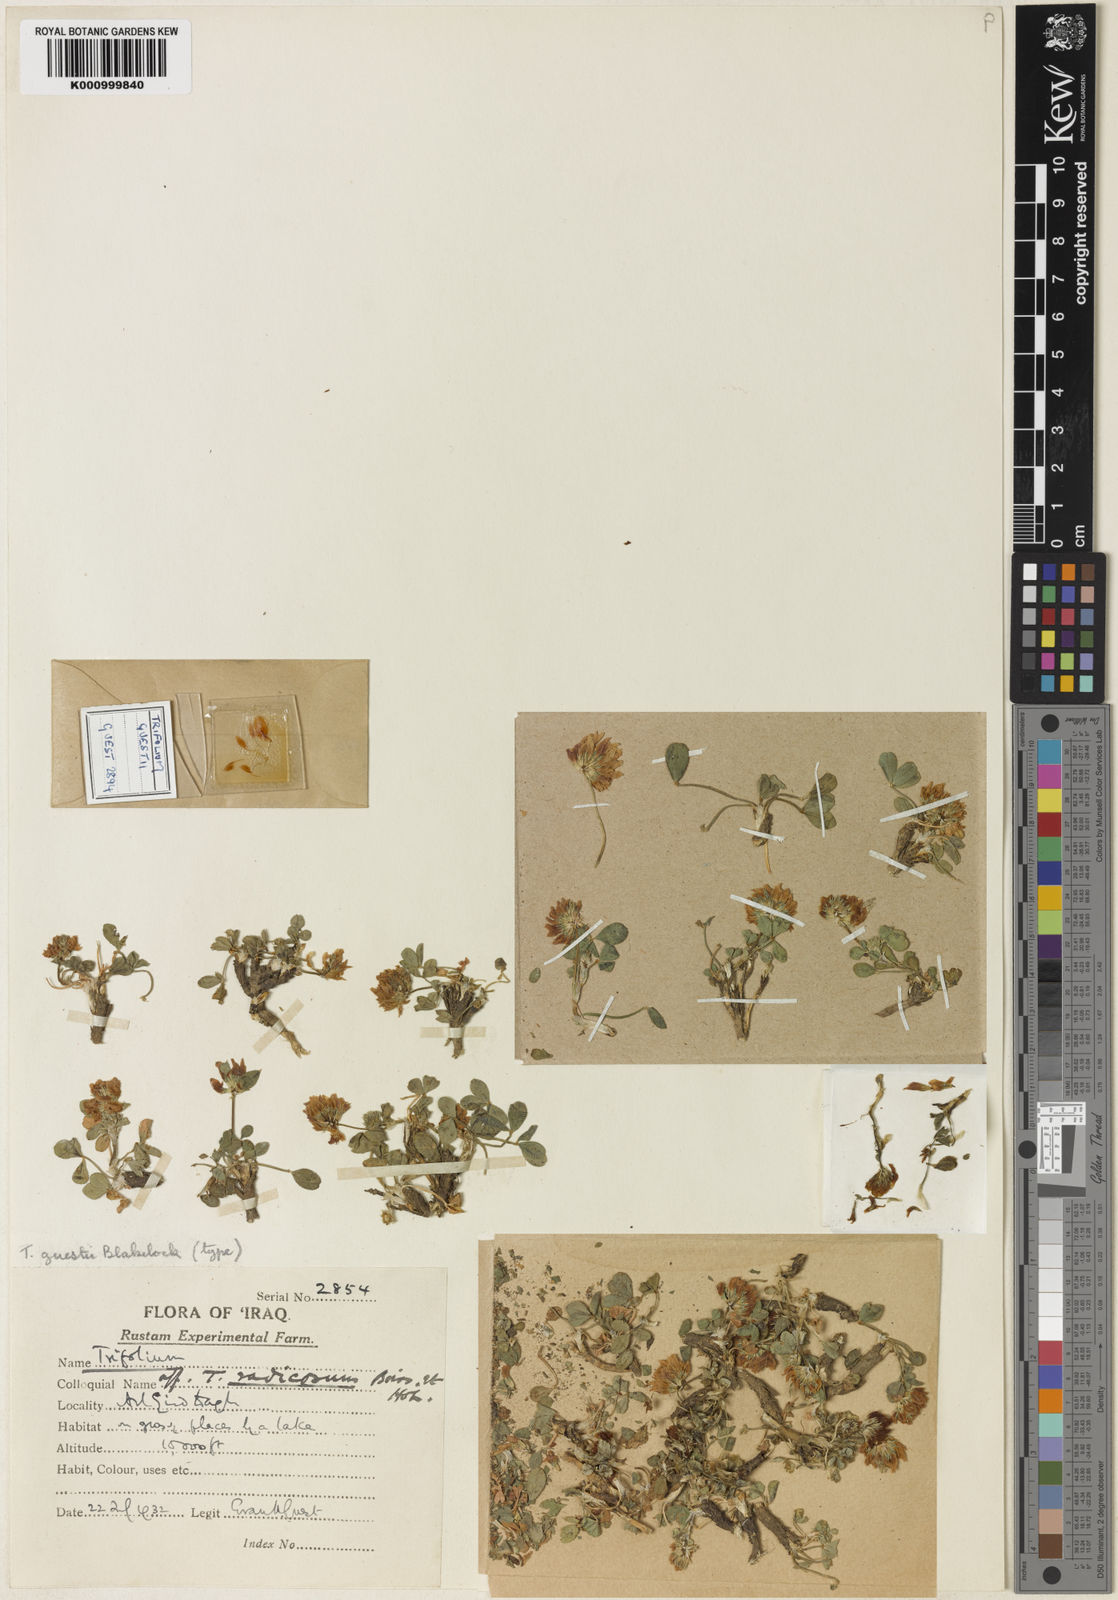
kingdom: Plantae
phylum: Tracheophyta
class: Magnoliopsida
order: Fabales
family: Fabaceae
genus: Trifolium
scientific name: Trifolium radicosum
